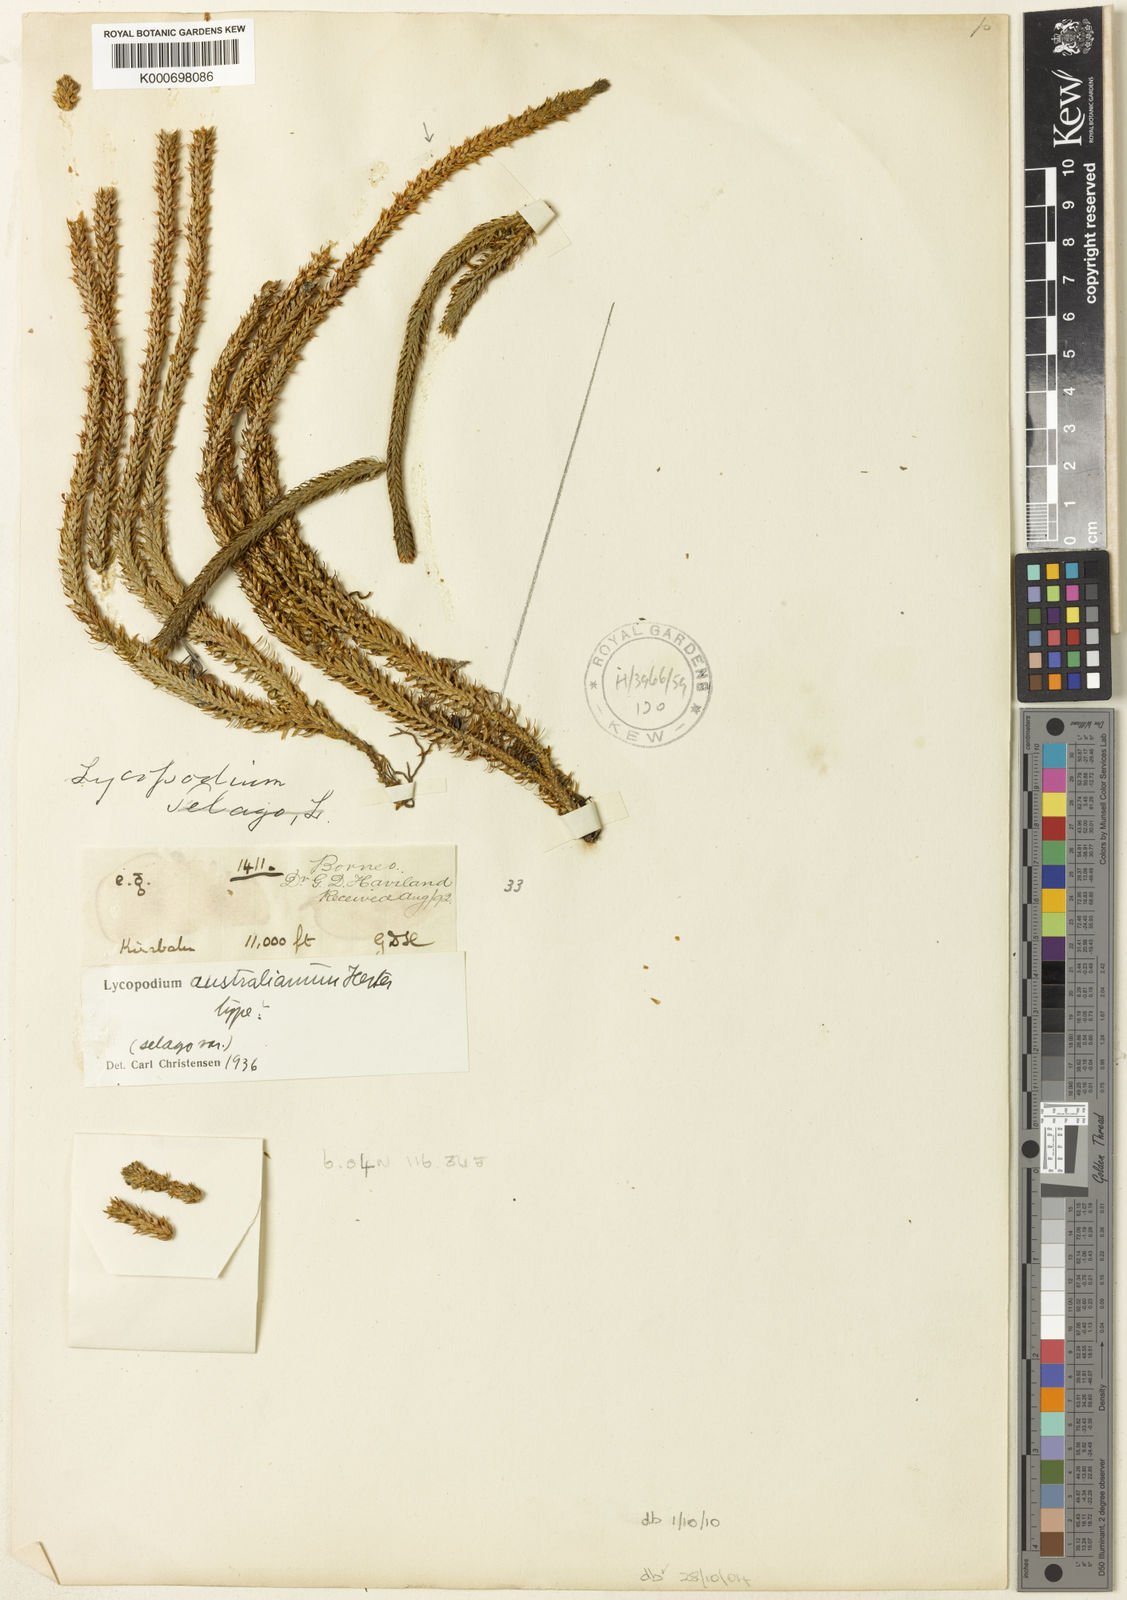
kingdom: Plantae
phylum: Tracheophyta
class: Lycopodiopsida
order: Lycopodiales
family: Lycopodiaceae
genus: Huperzia
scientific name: Huperzia australiana
